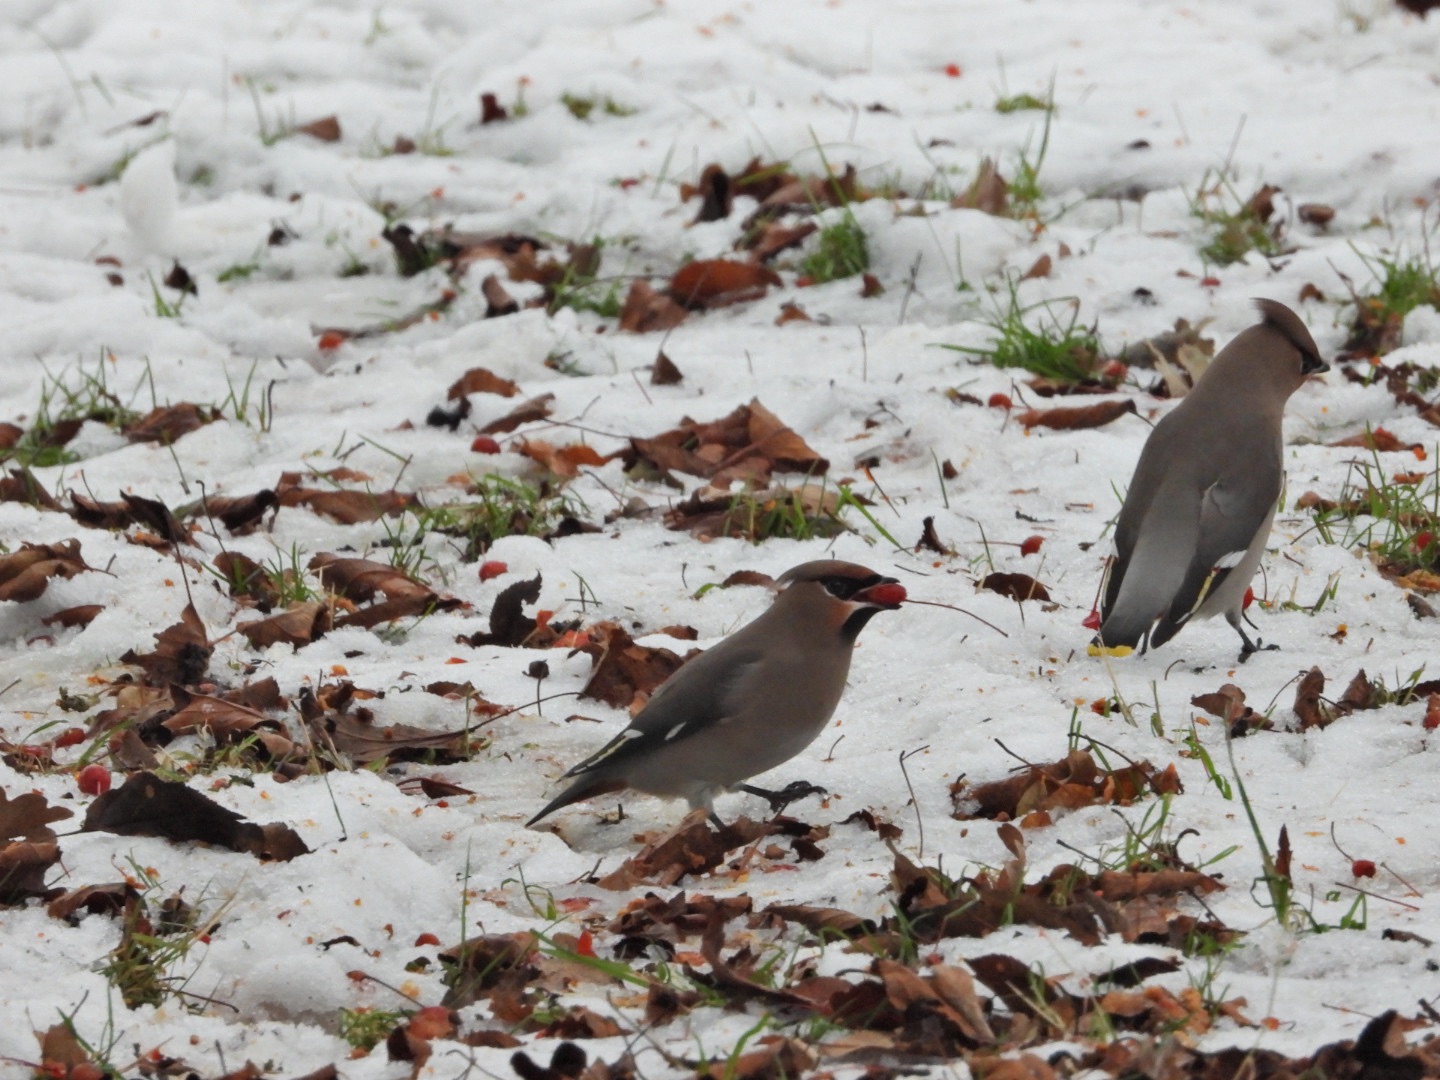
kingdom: Animalia
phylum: Chordata
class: Aves
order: Passeriformes
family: Bombycillidae
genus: Bombycilla
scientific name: Bombycilla garrulus
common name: Silkehale
